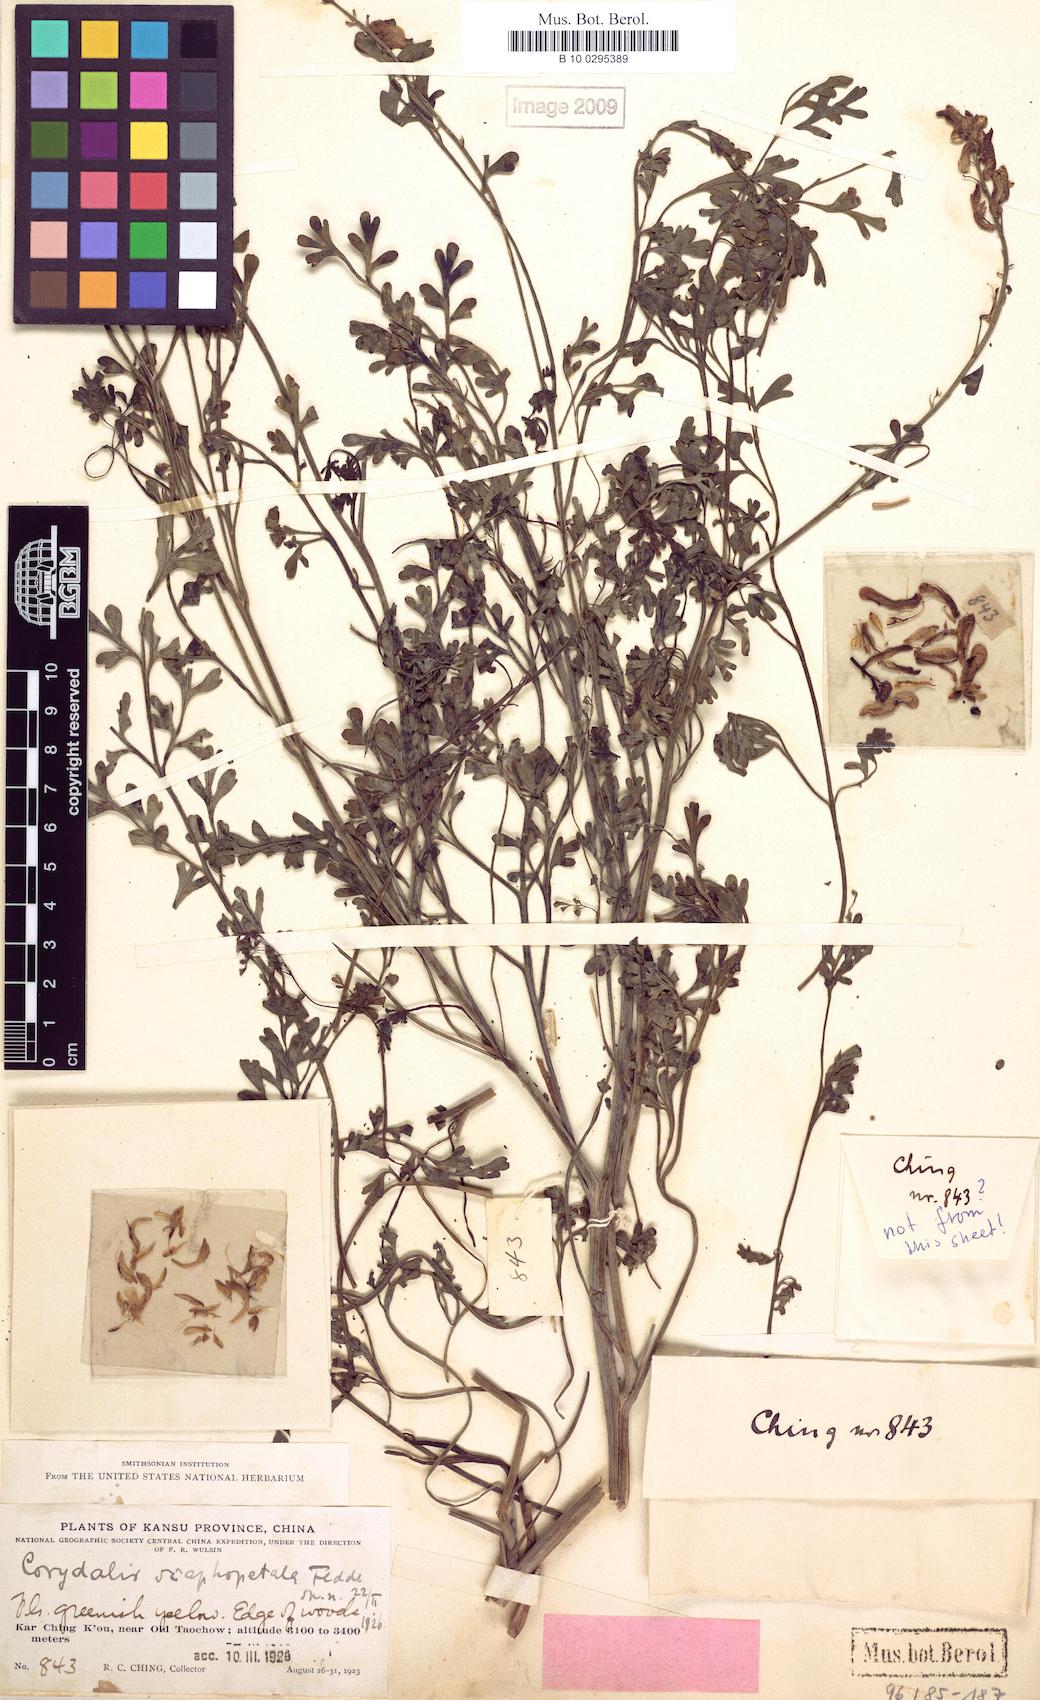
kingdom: Plantae
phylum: Tracheophyta
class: Magnoliopsida
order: Ranunculales
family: Papaveraceae
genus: Corydalis
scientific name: Corydalis adunca
